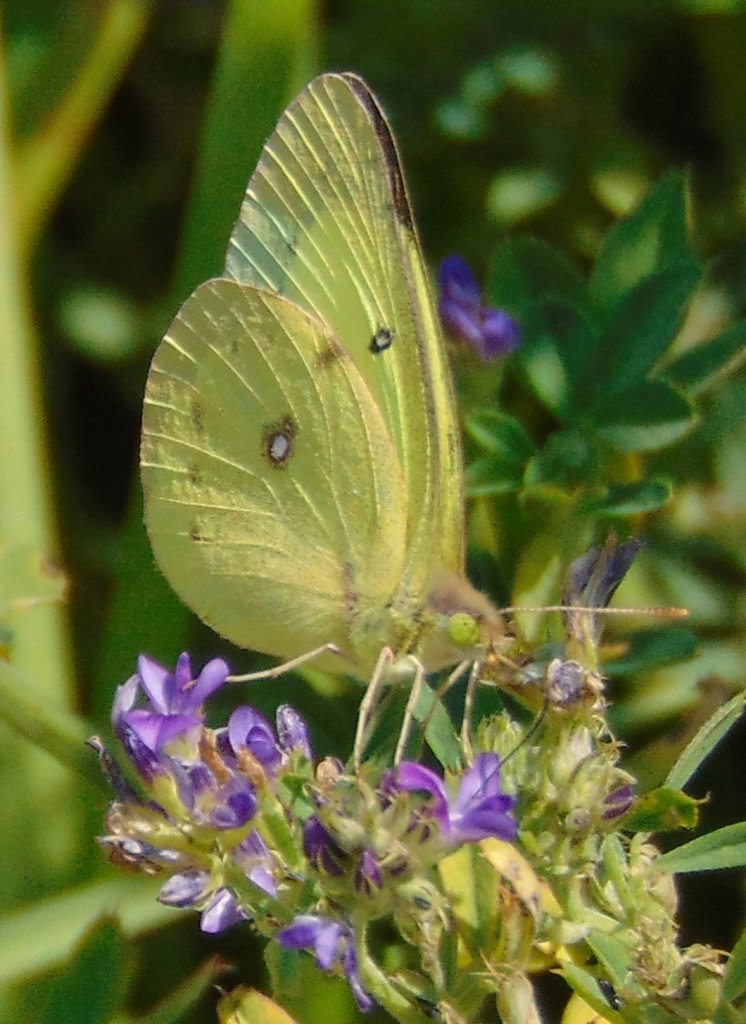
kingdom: Animalia
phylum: Arthropoda
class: Insecta
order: Lepidoptera
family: Pieridae
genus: Colias
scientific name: Colias philodice
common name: Clouded Sulphur
